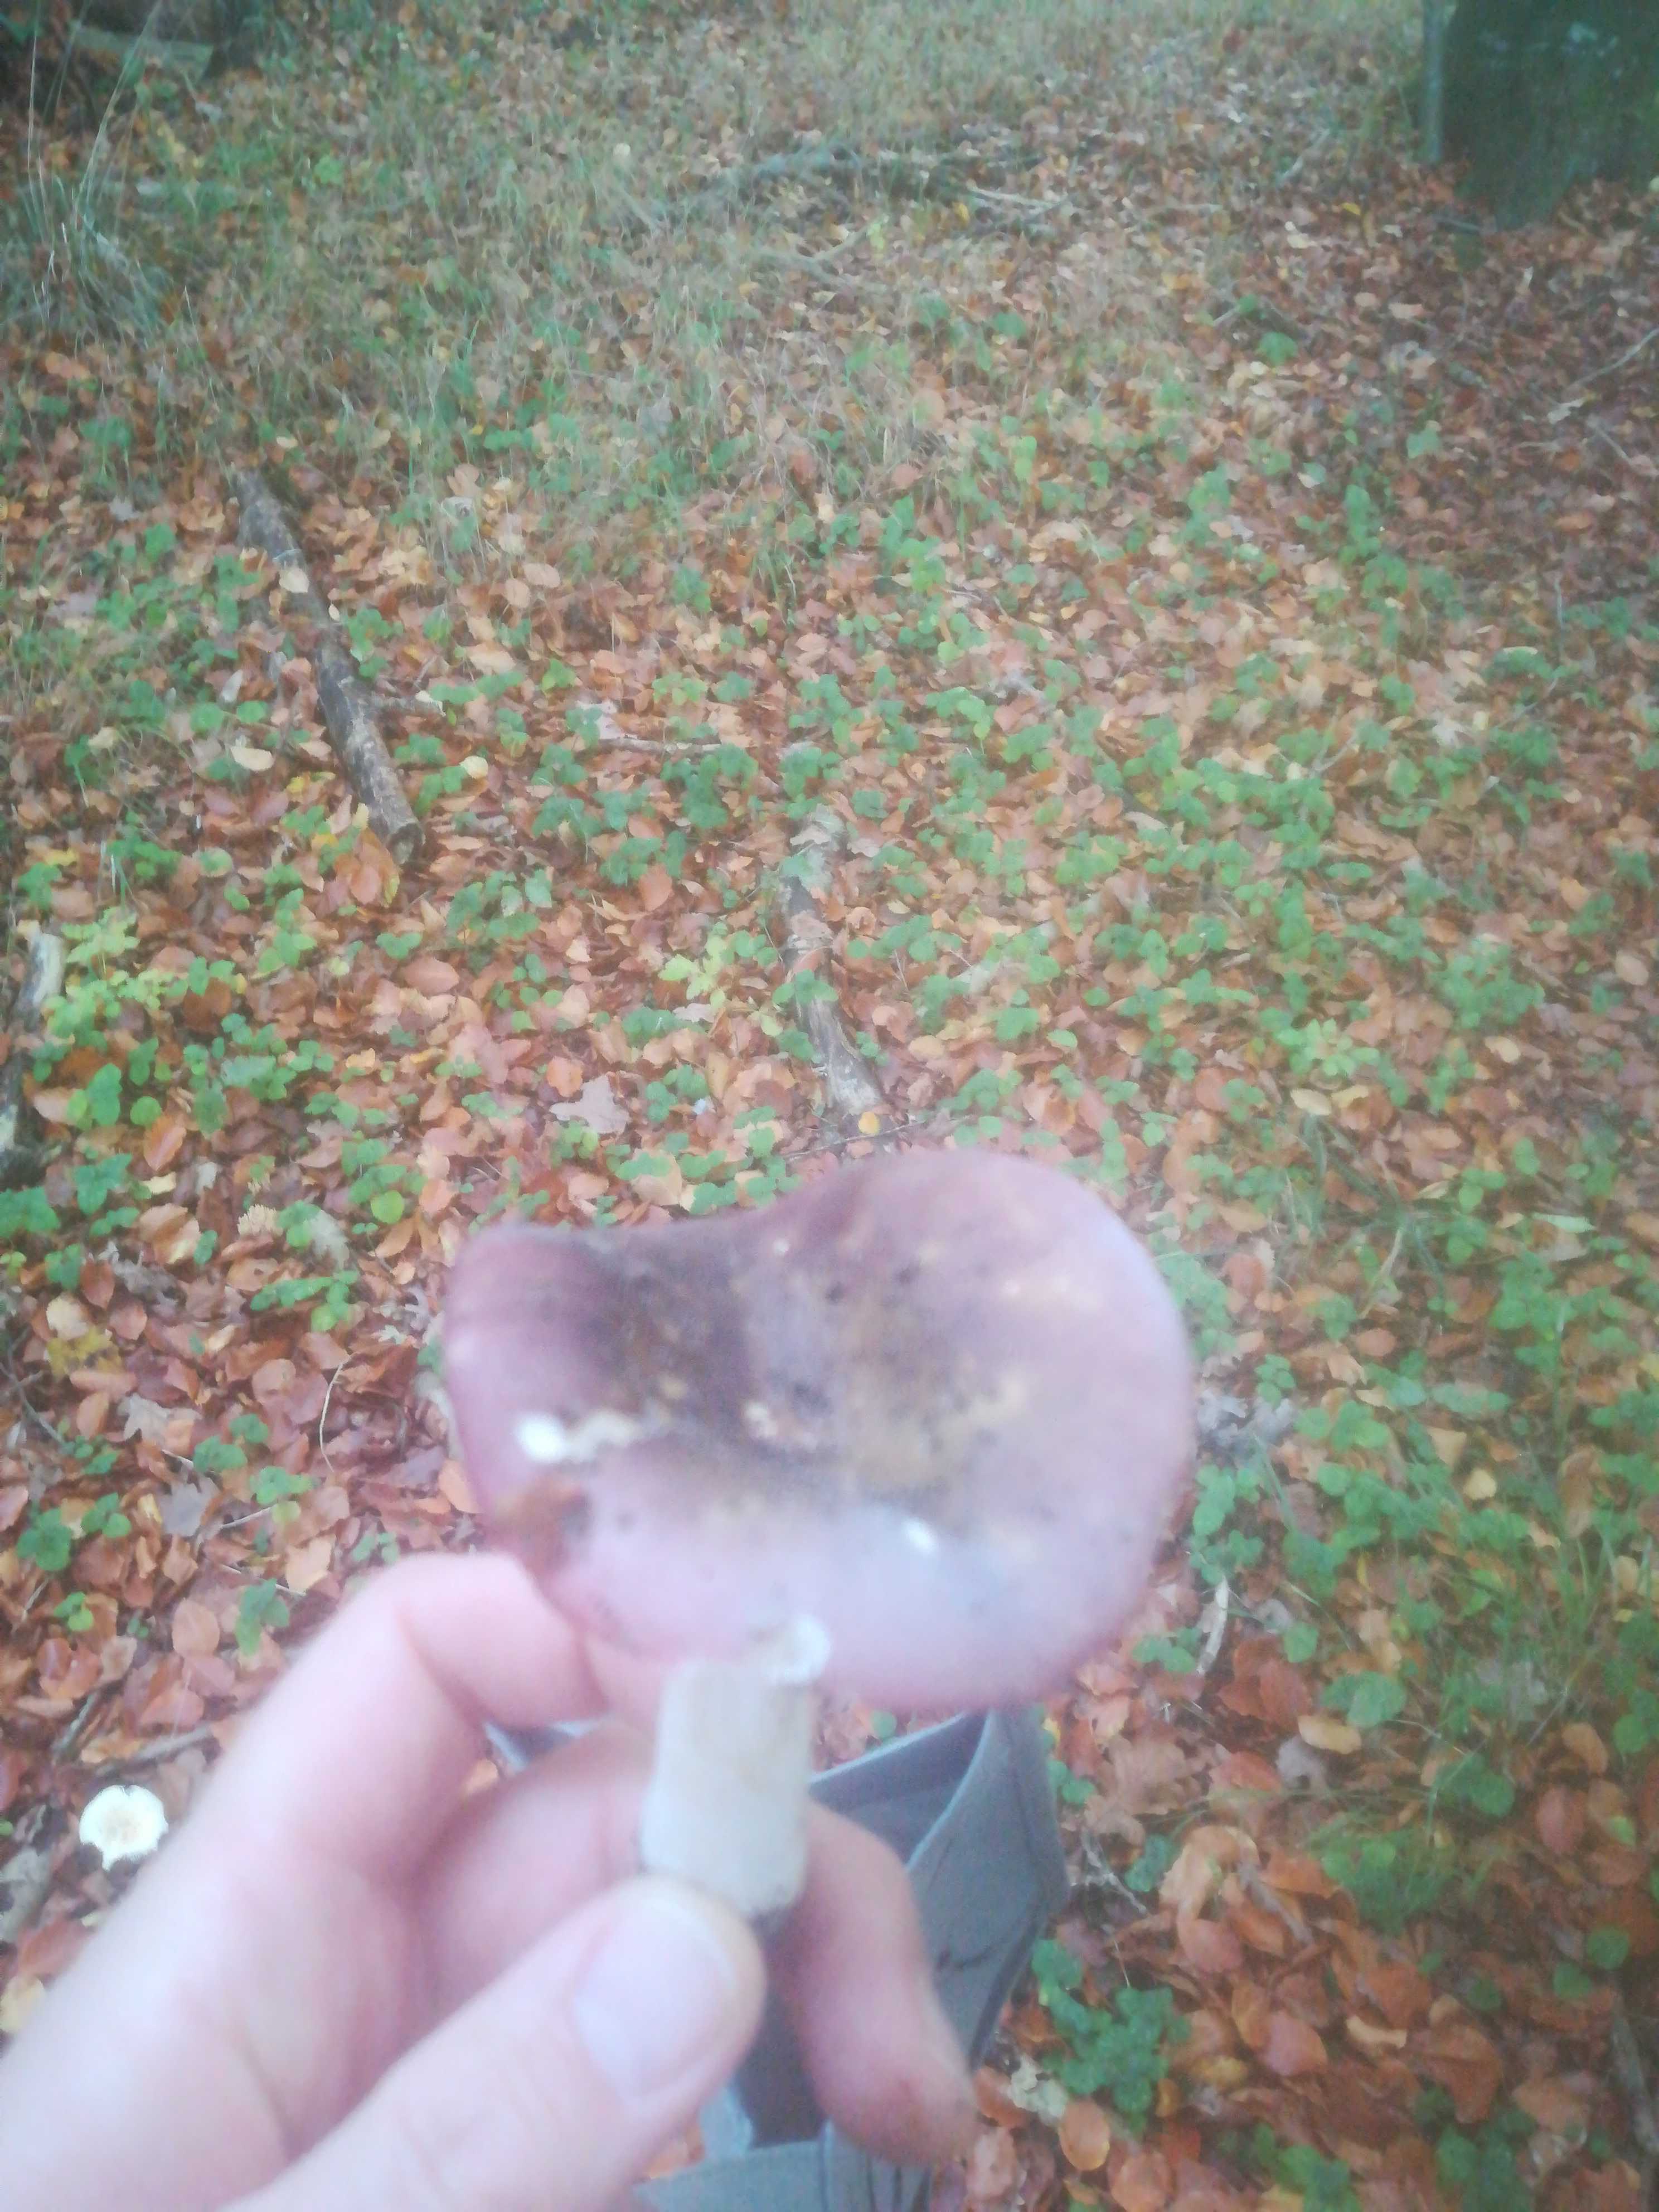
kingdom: Fungi
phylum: Basidiomycota
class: Agaricomycetes
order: Russulales
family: Russulaceae
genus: Russula
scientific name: Russula
